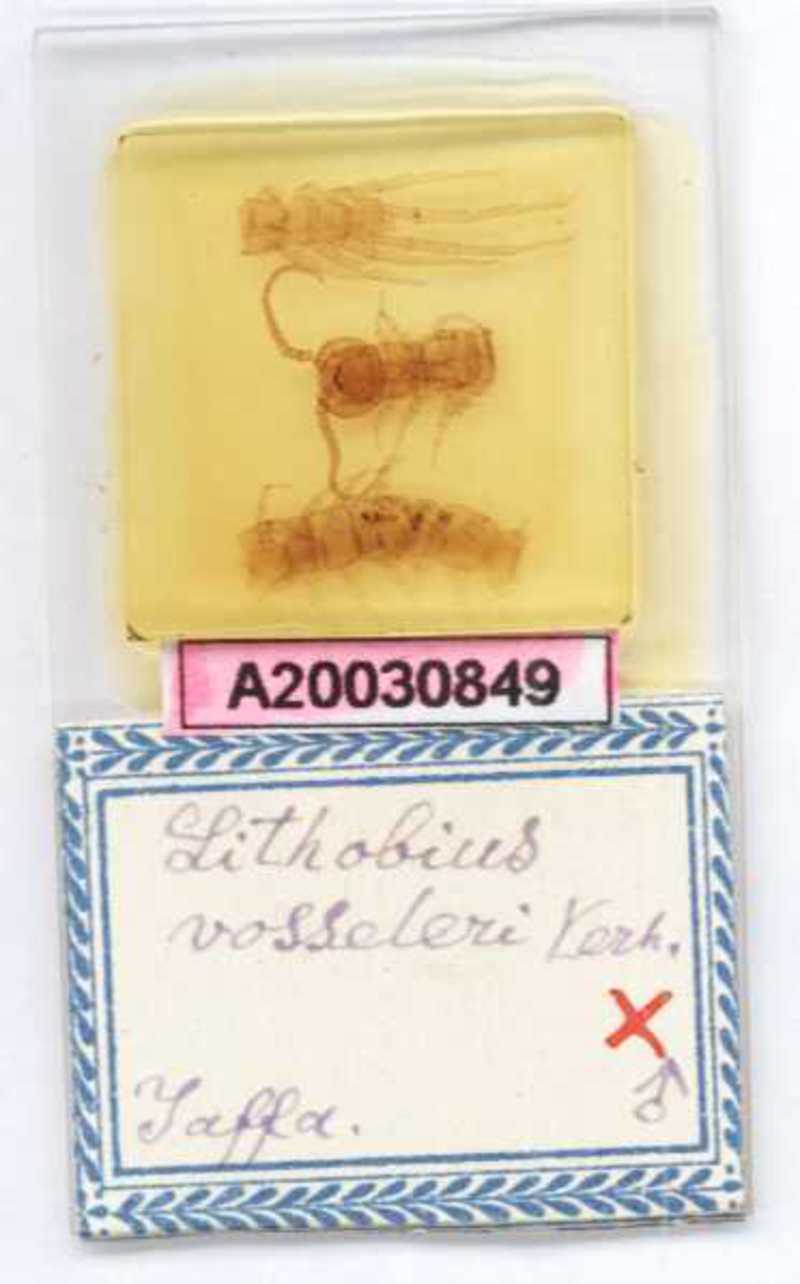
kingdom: Animalia
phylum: Arthropoda
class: Chilopoda
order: Lithobiomorpha
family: Lithobiidae
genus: Hessebius
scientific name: Hessebius barbipes
